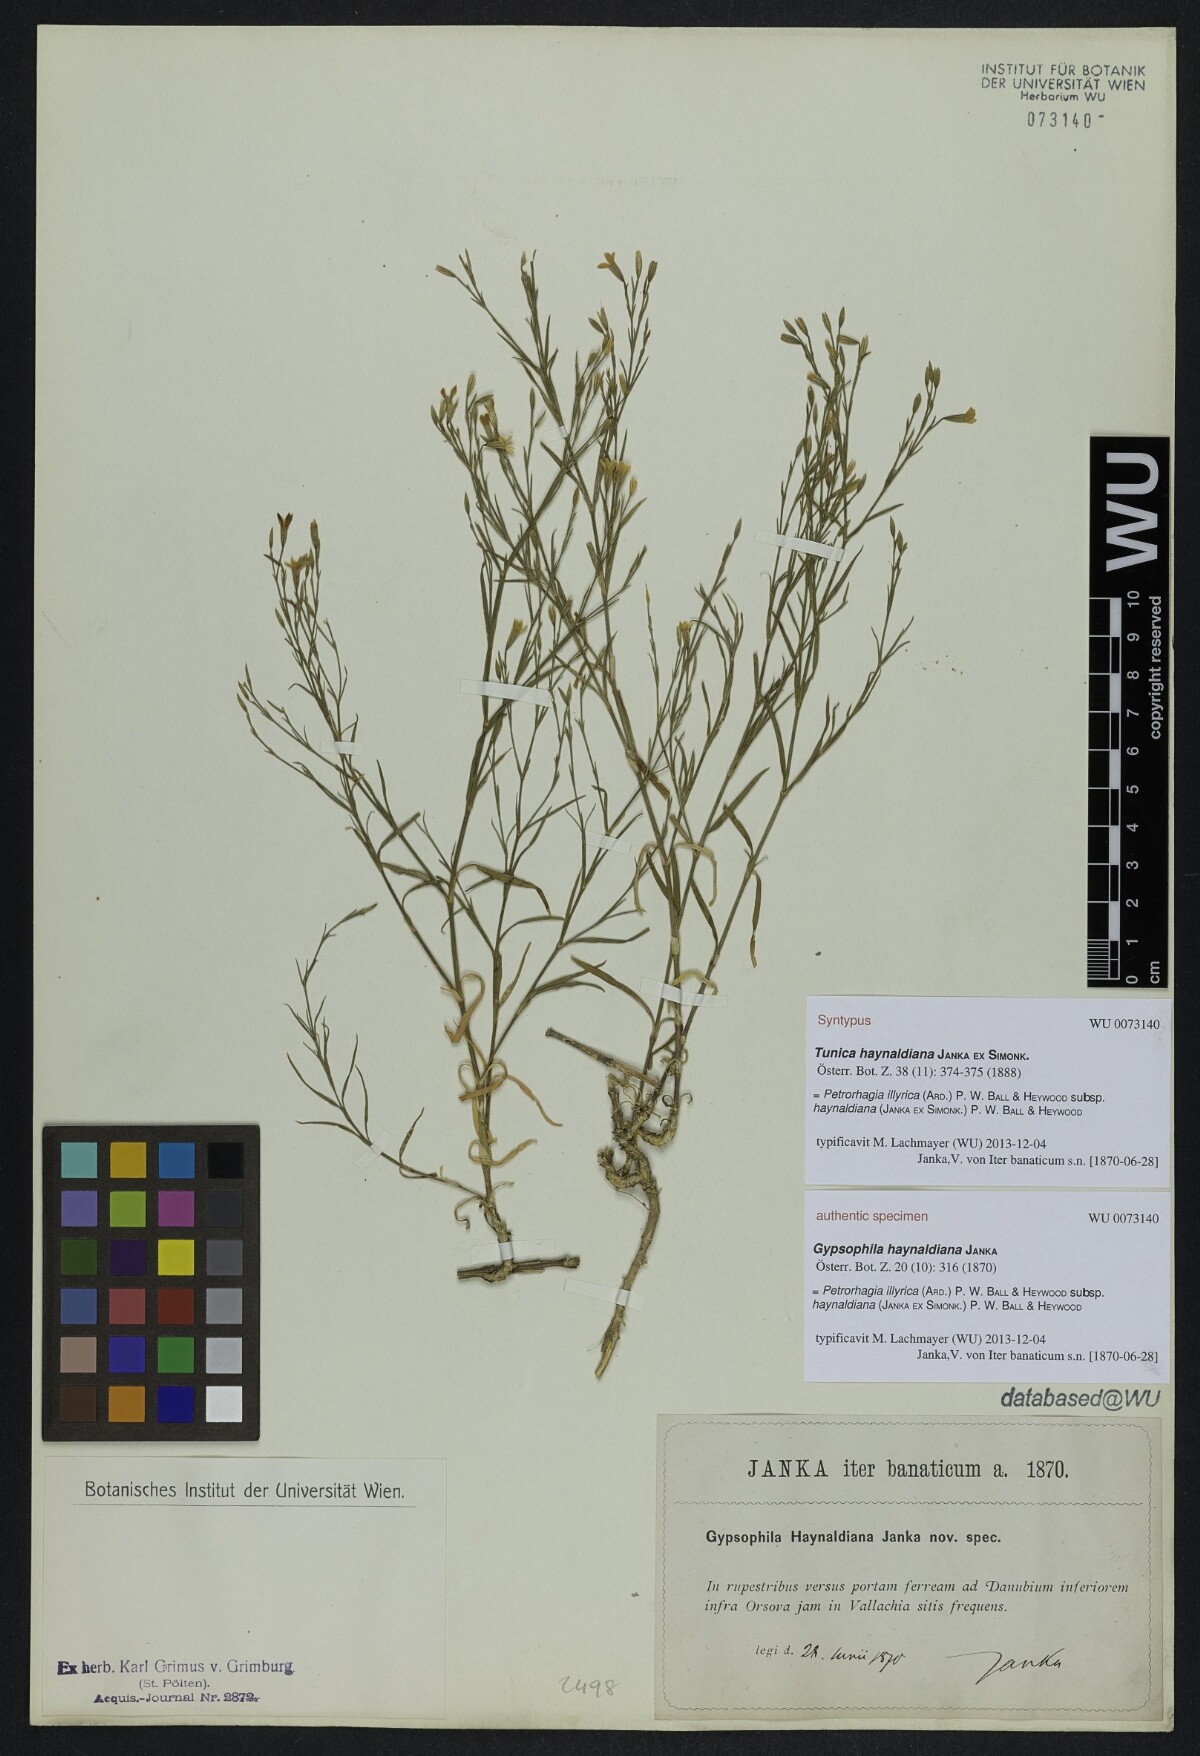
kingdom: Plantae
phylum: Tracheophyta
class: Magnoliopsida
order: Caryophyllales
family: Caryophyllaceae
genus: Dianthus
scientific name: Dianthus illyricus
